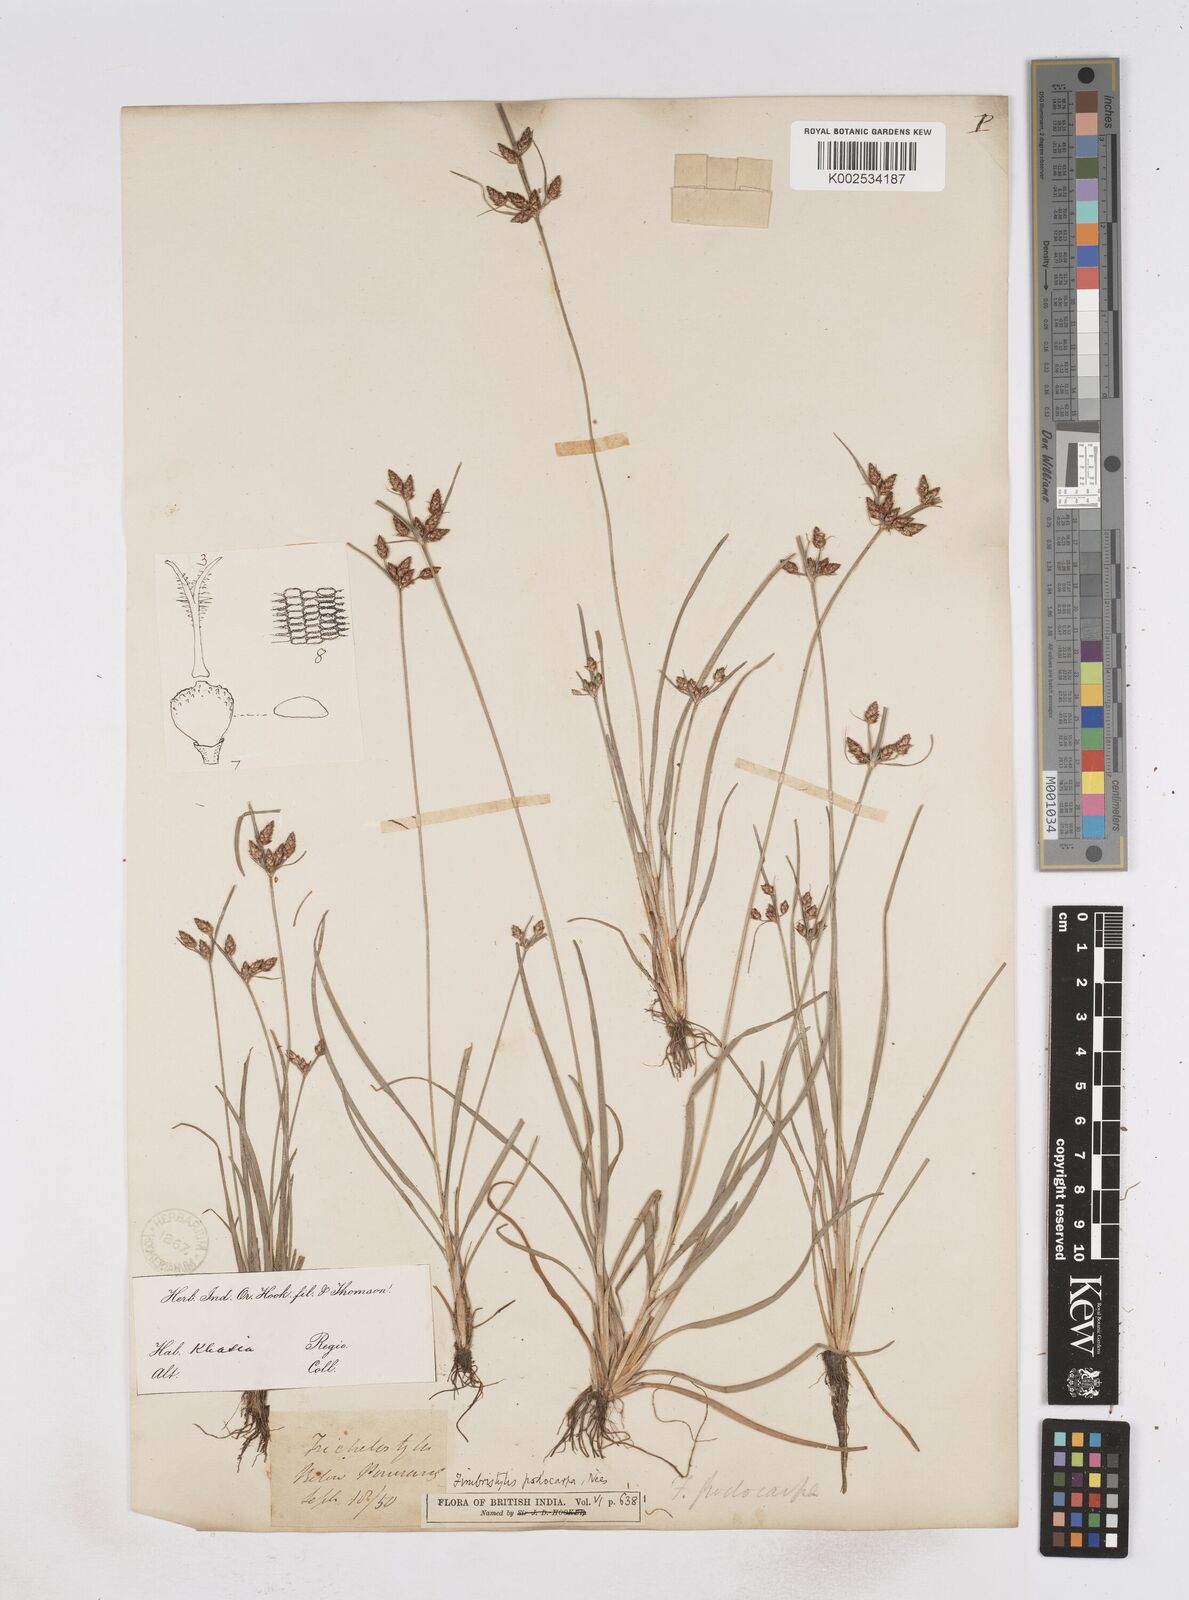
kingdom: Plantae
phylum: Tracheophyta
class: Liliopsida
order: Poales
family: Cyperaceae
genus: Fimbristylis
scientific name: Fimbristylis dichotoma
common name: Forked fimbry
